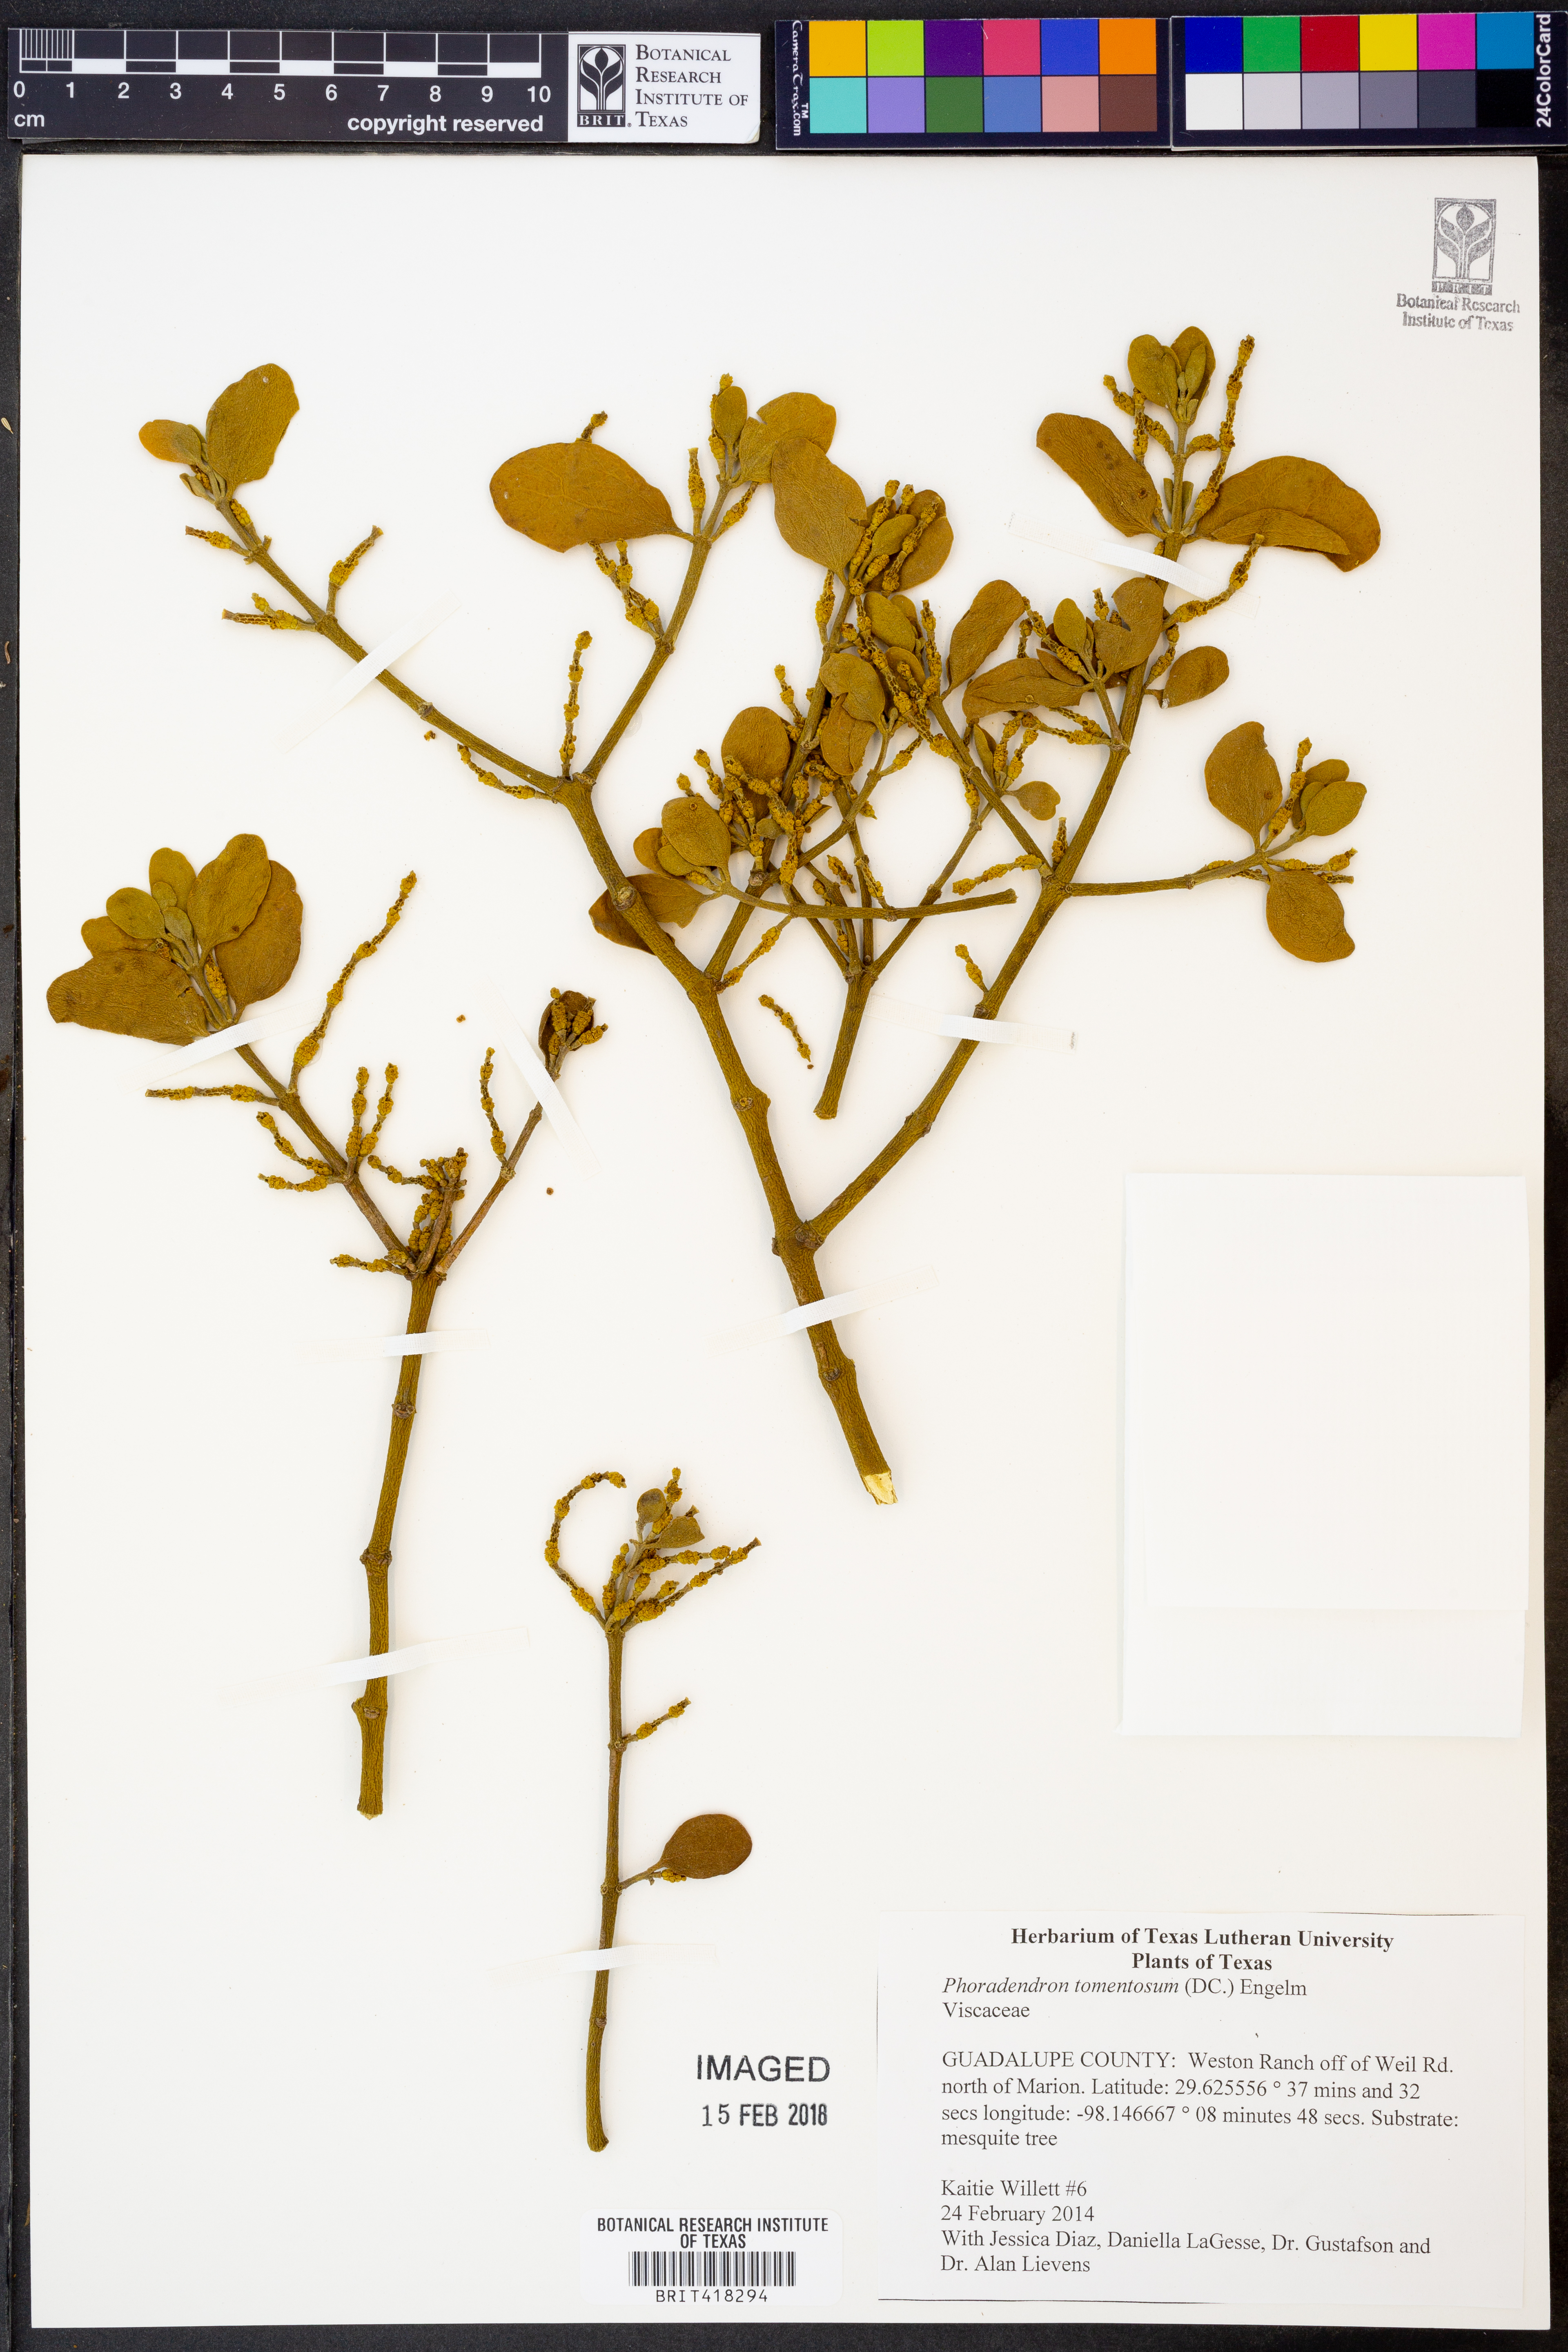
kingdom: Plantae
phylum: Tracheophyta
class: Magnoliopsida
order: Santalales
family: Viscaceae
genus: Phoradendron
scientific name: Phoradendron leucarpum
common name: Pacific mistletoe
